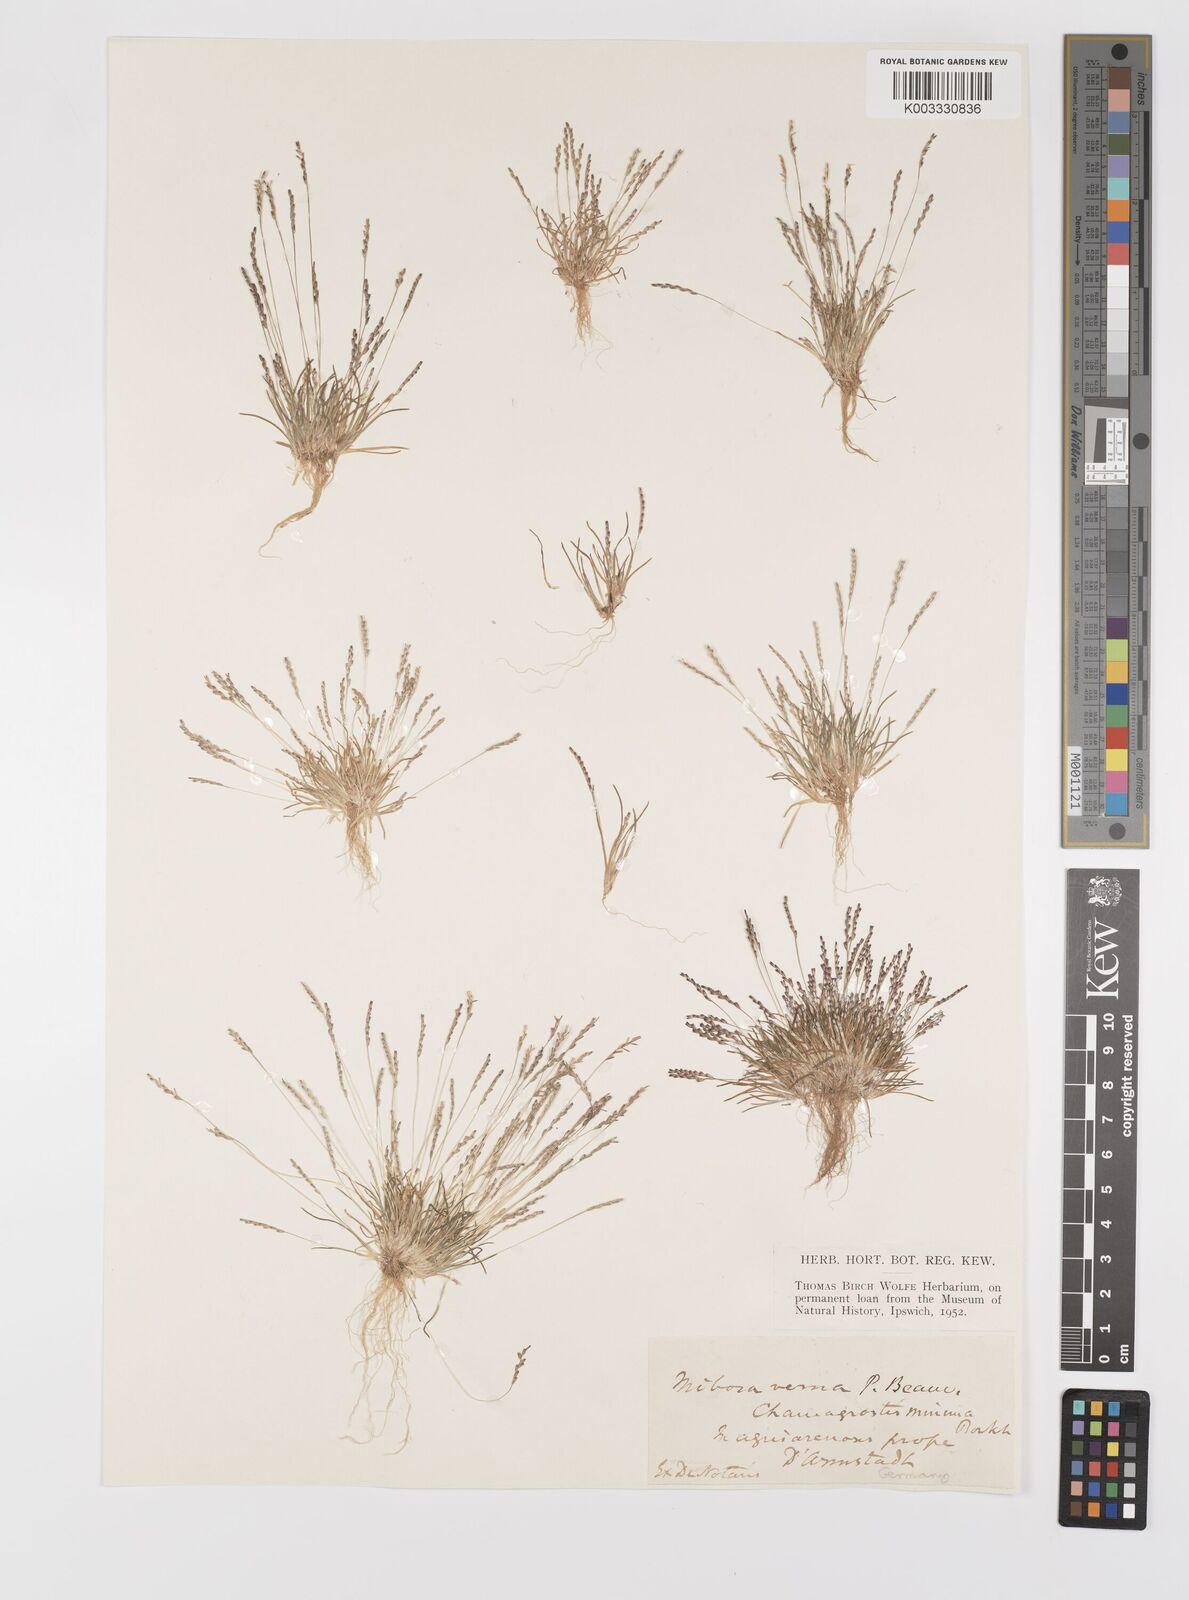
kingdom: Plantae
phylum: Tracheophyta
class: Liliopsida
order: Poales
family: Poaceae
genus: Mibora
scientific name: Mibora minima
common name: Early sand-grass
